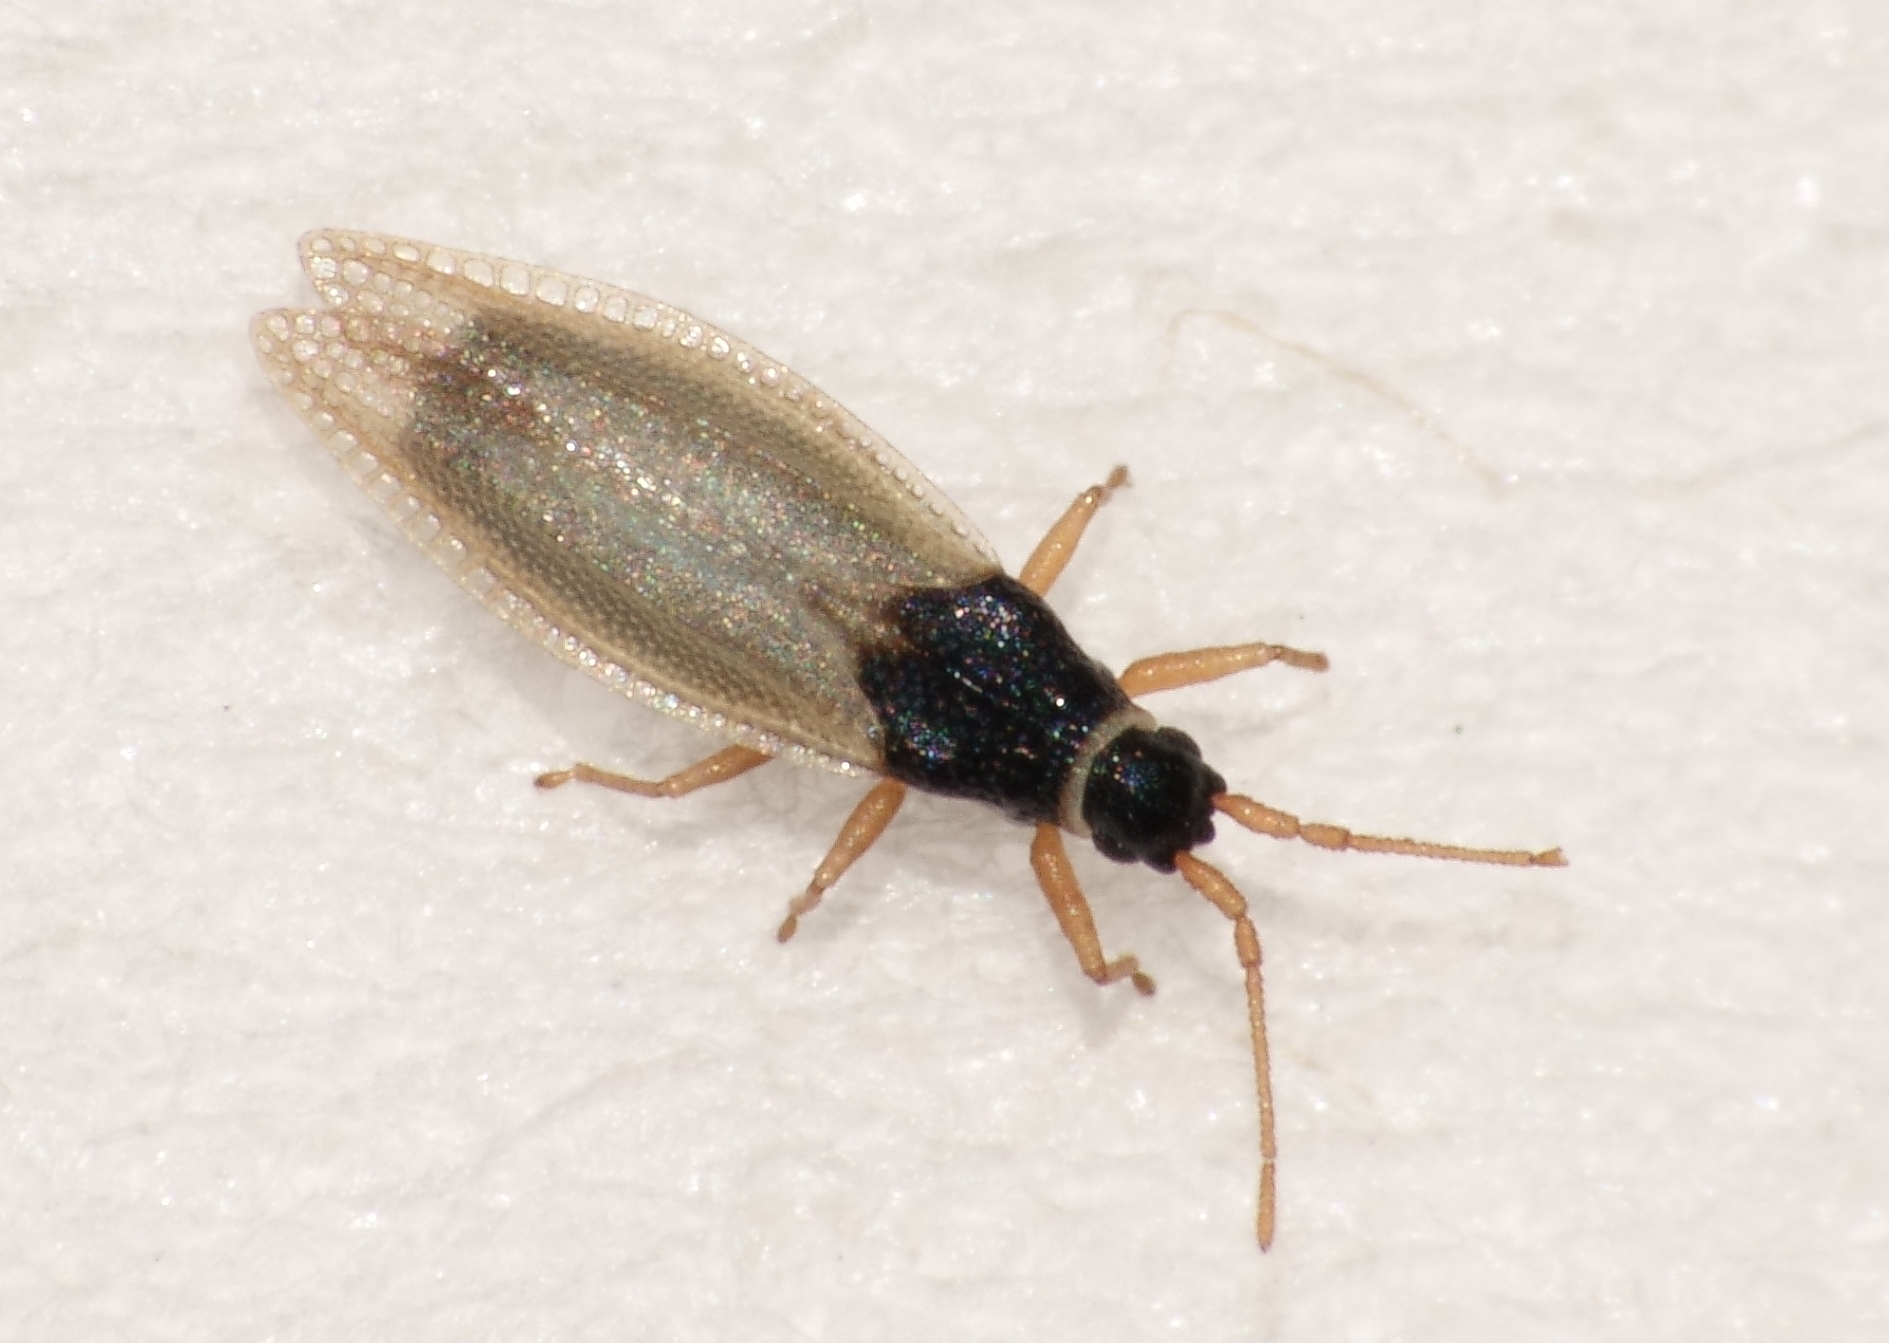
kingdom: Animalia
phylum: Arthropoda
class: Insecta
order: Hemiptera
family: Tingidae
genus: Agramma
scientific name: Agramma tropidopterum
